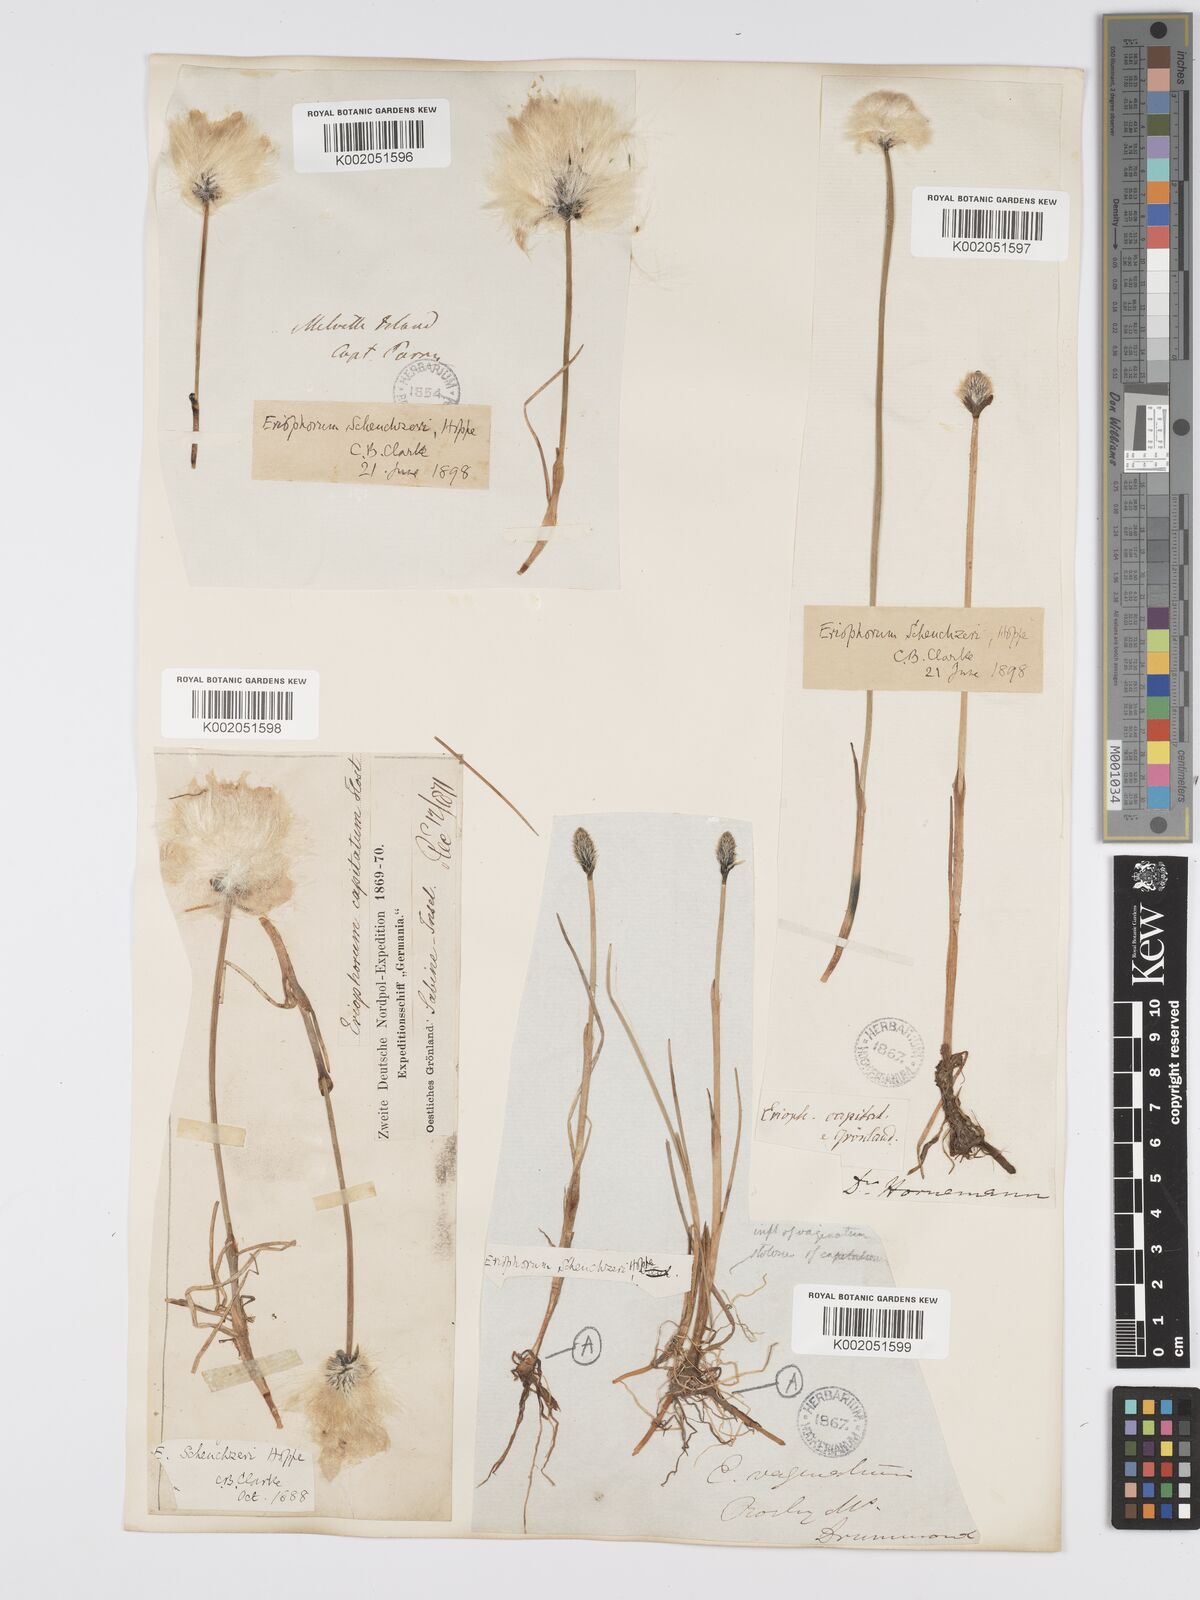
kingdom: Plantae
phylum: Tracheophyta
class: Liliopsida
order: Poales
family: Cyperaceae
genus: Eriophorum
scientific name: Eriophorum scheuchzeri
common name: Scheuchzer's cottongrass
